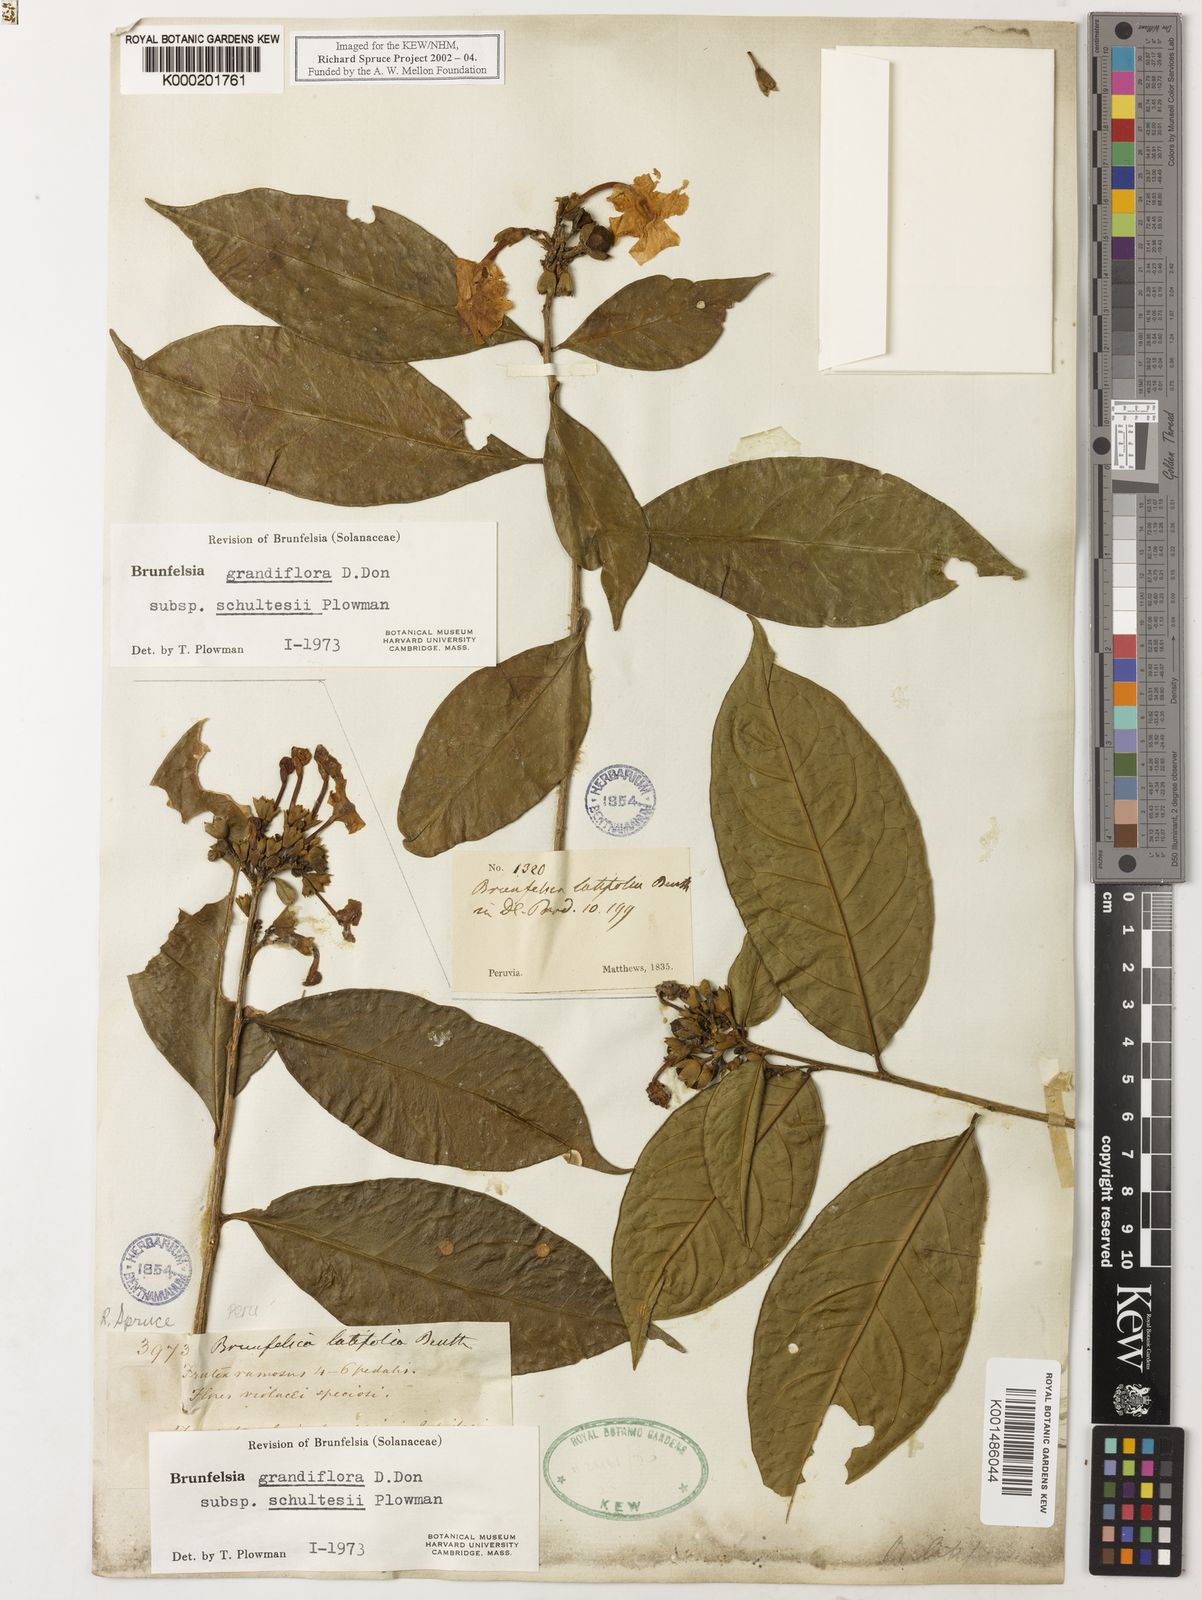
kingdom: Plantae
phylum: Tracheophyta
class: Magnoliopsida
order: Solanales
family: Solanaceae
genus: Brunfelsia
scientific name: Brunfelsia grandiflora
